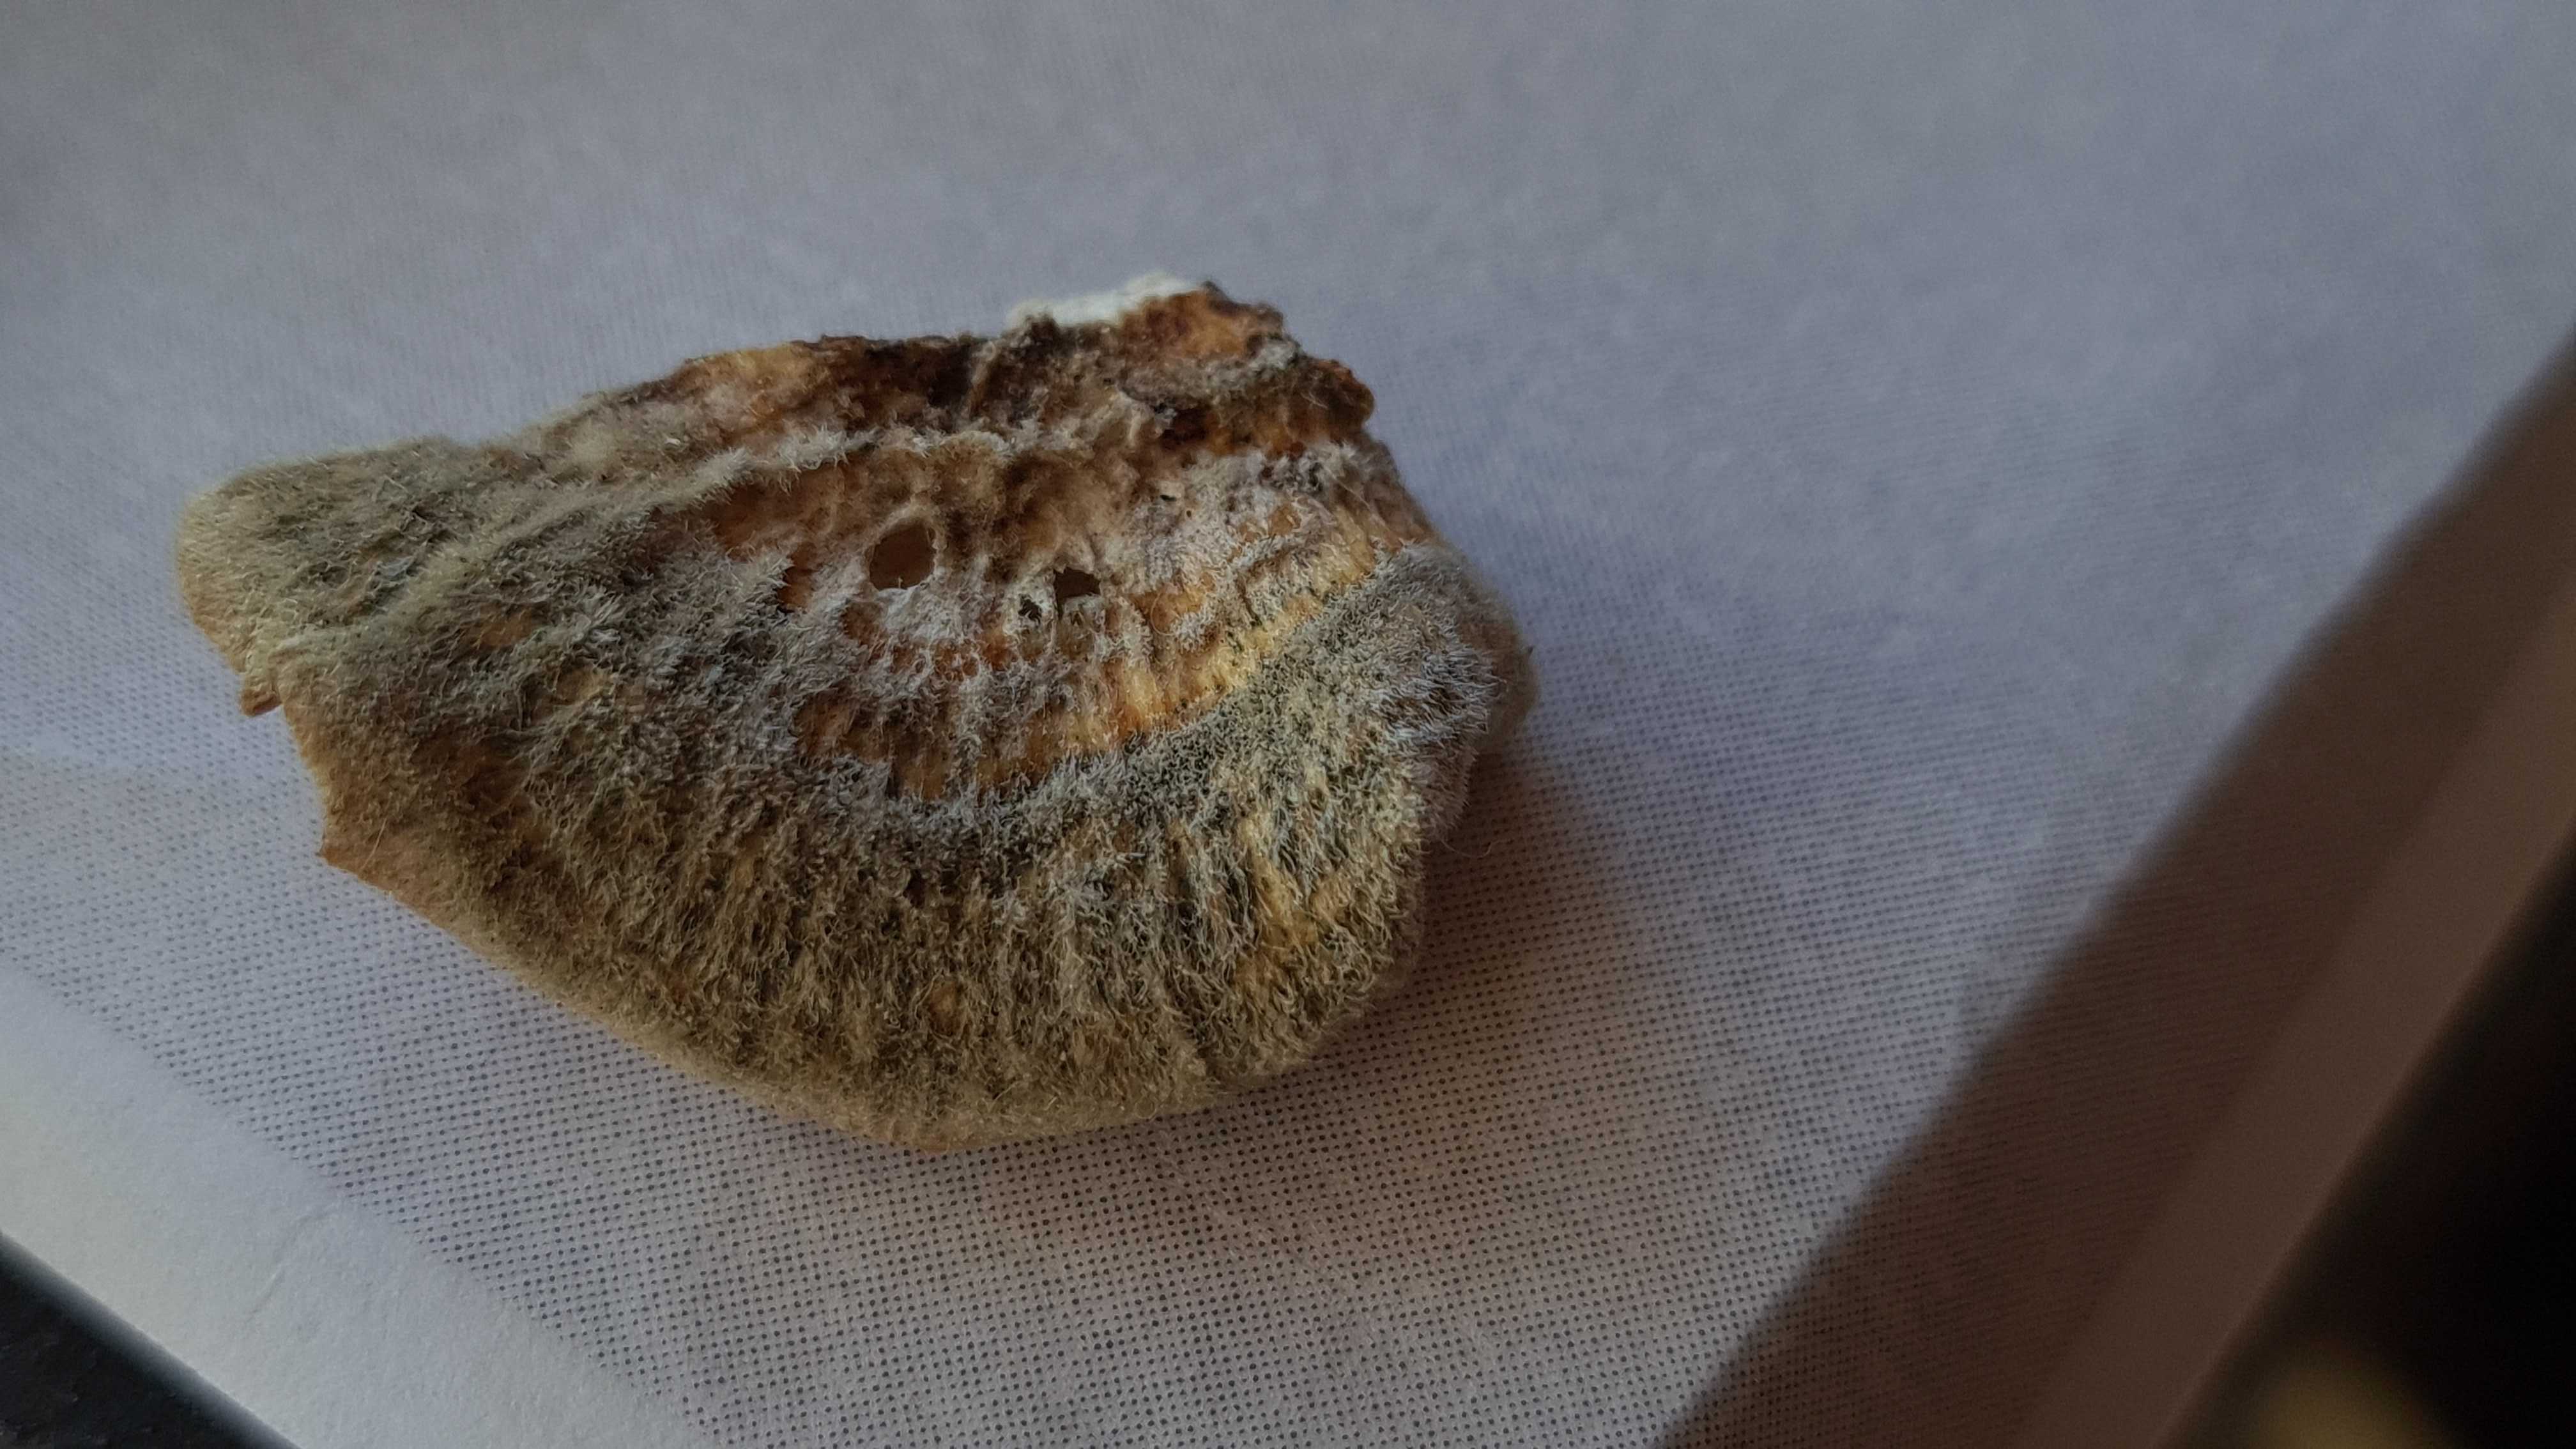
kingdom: Fungi
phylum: Basidiomycota
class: Agaricomycetes
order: Polyporales
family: Polyporaceae
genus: Trametes
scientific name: Trametes
